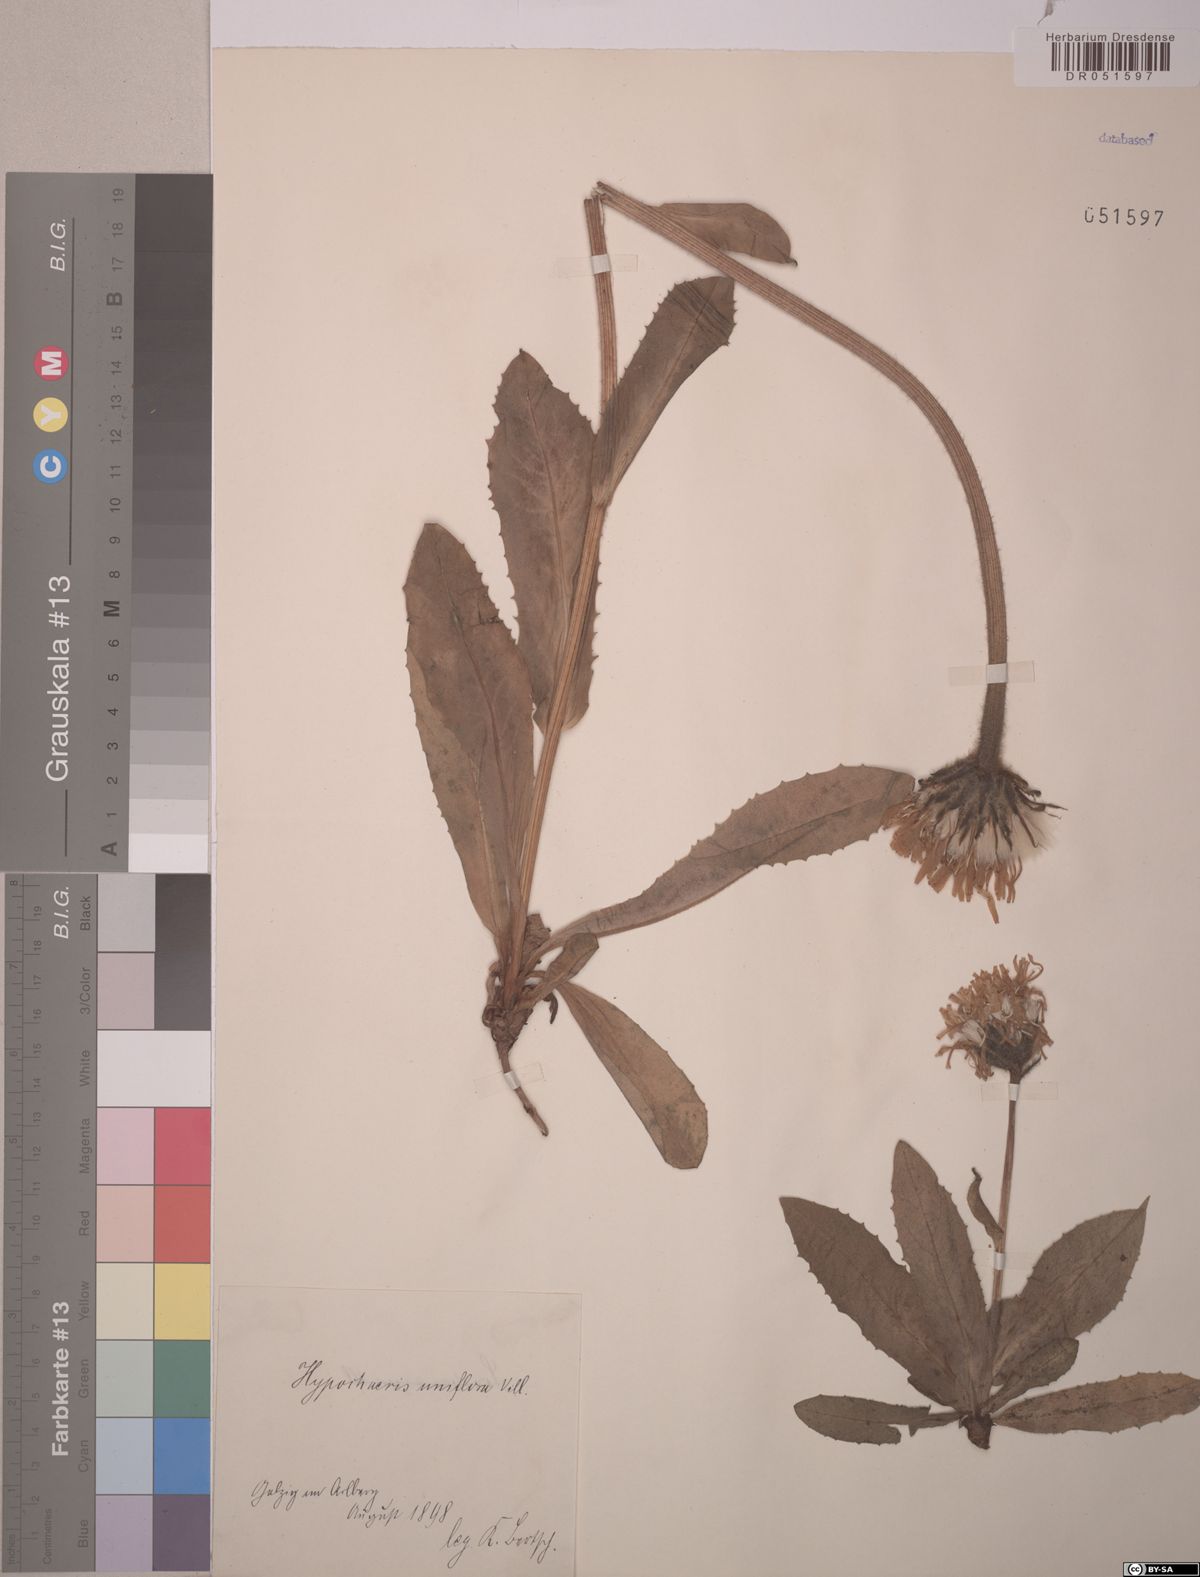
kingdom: Plantae
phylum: Tracheophyta
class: Magnoliopsida
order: Asterales
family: Asteraceae
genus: Trommsdorffia
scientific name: Trommsdorffia uniflora
